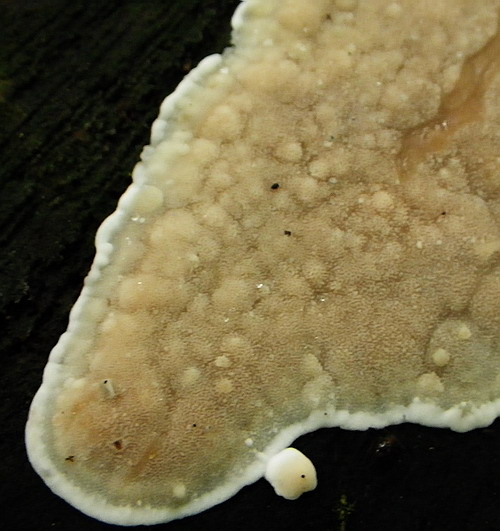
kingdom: Fungi
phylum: Basidiomycota
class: Agaricomycetes
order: Polyporales
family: Meripilaceae
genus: Rigidoporus
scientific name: Rigidoporus sanguinolentus
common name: blod-skorpeporesvamp
